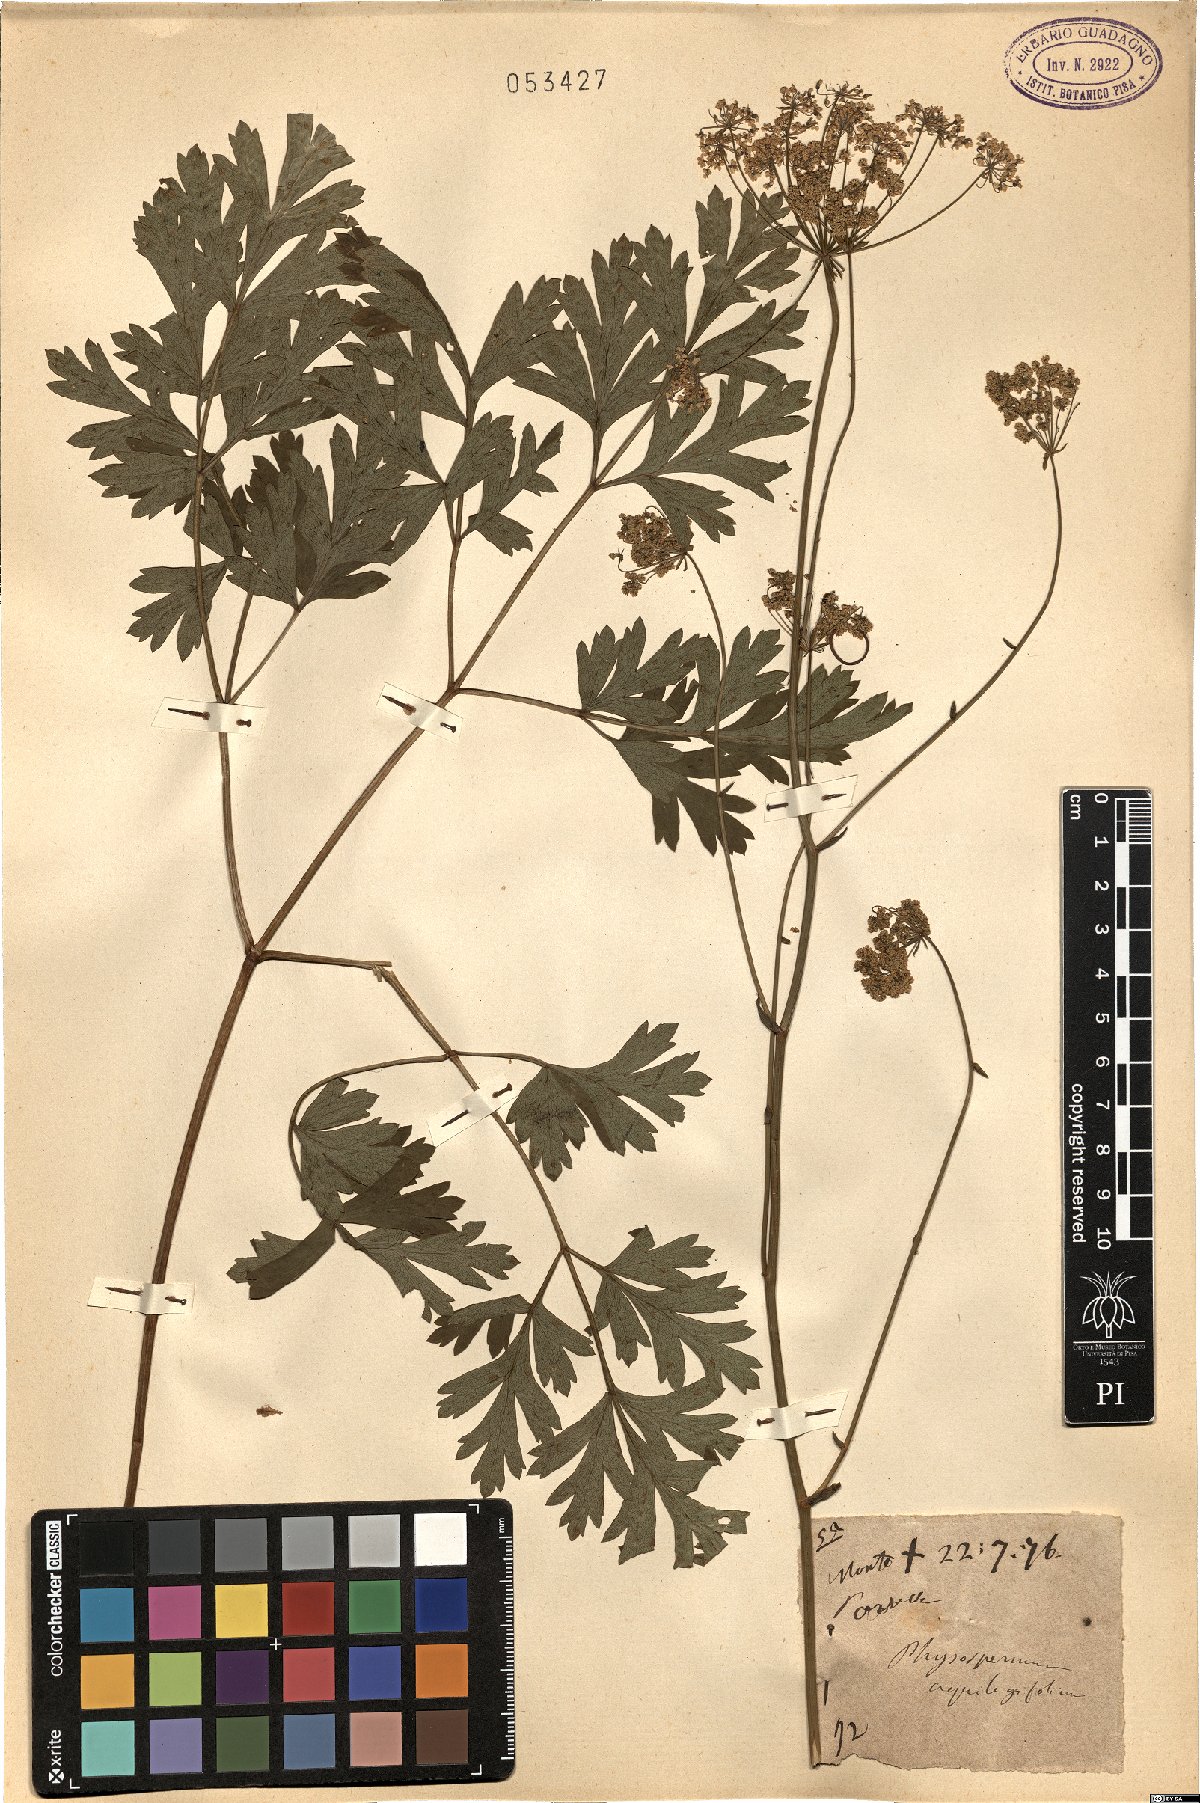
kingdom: Plantae
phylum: Tracheophyta
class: Magnoliopsida
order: Apiales
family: Apiaceae
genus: Physospermum
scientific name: Physospermum cornubiense
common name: Bladderseed
